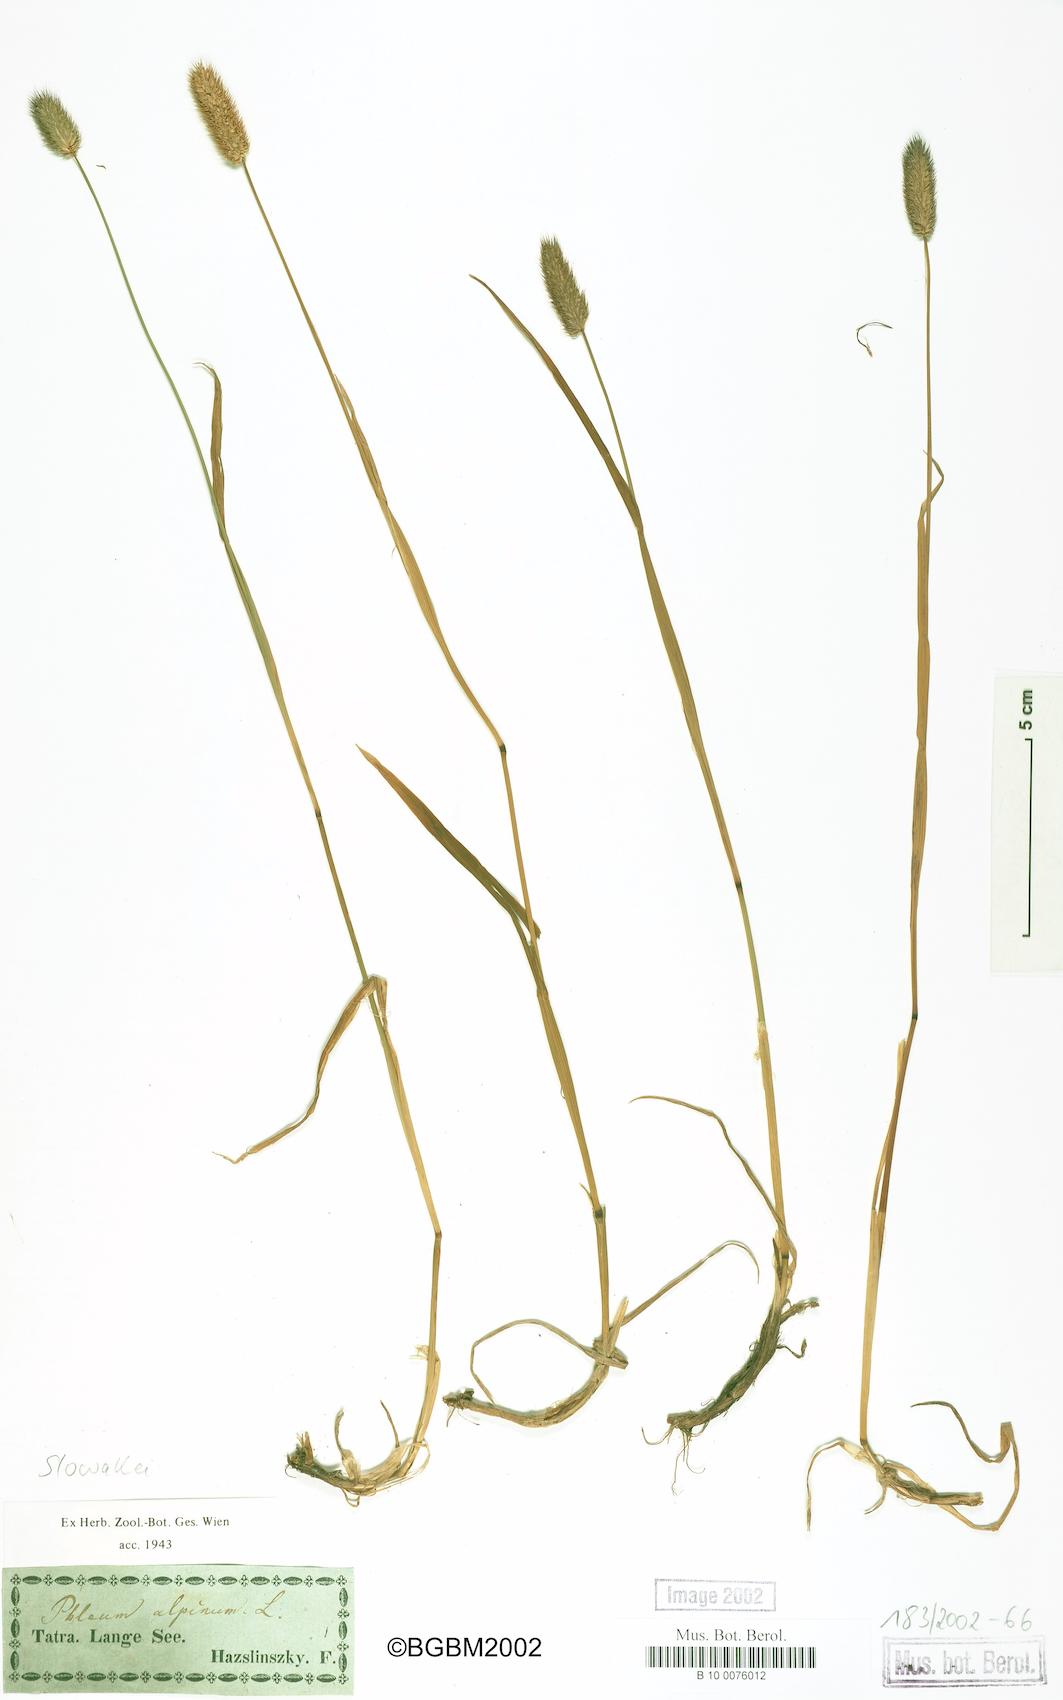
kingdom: Plantae
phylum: Tracheophyta
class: Liliopsida
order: Poales
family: Poaceae
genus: Phleum
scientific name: Phleum alpinum
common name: Alpine cat's-tail
